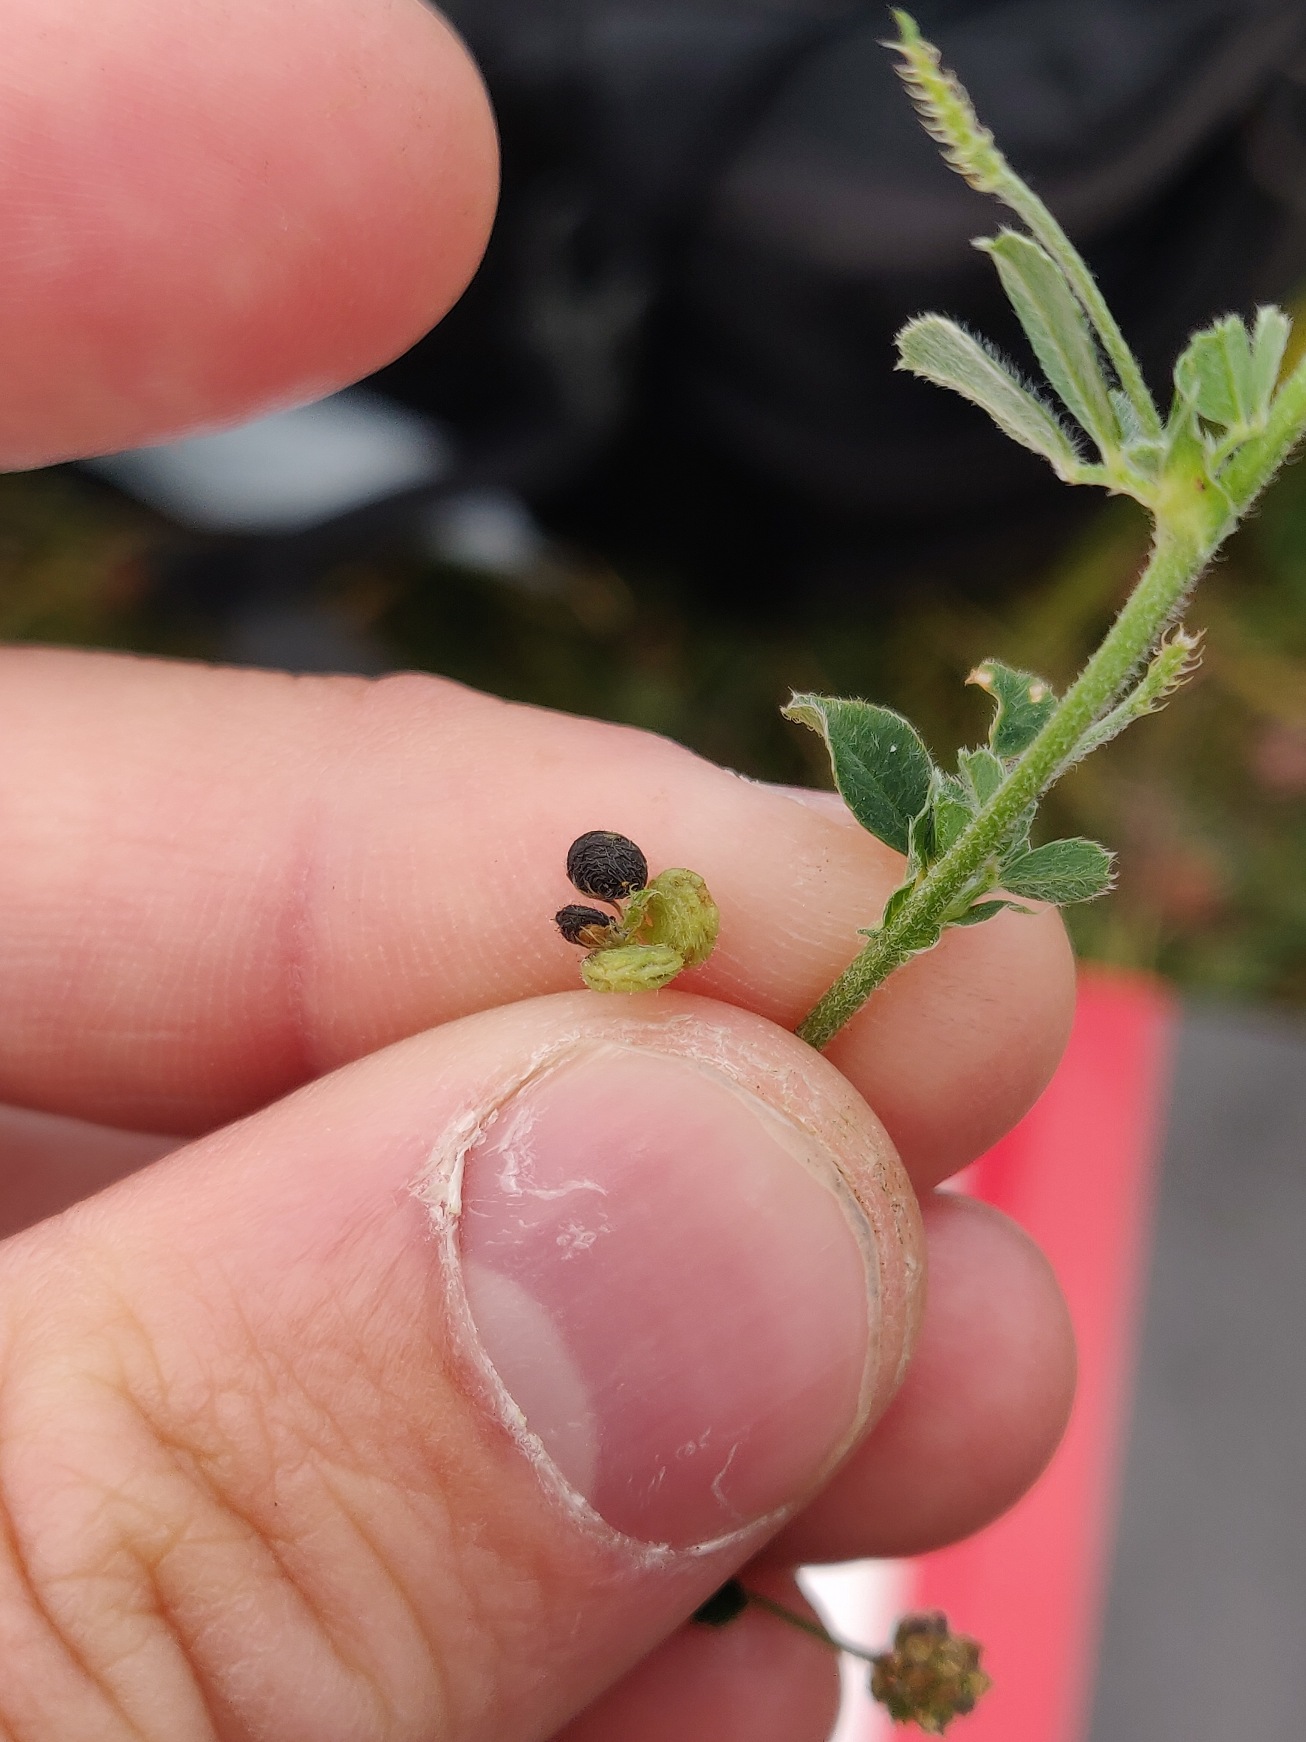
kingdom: Plantae
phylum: Tracheophyta
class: Magnoliopsida
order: Fabales
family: Fabaceae
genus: Medicago
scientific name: Medicago lupulina
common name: Humle-sneglebælg
